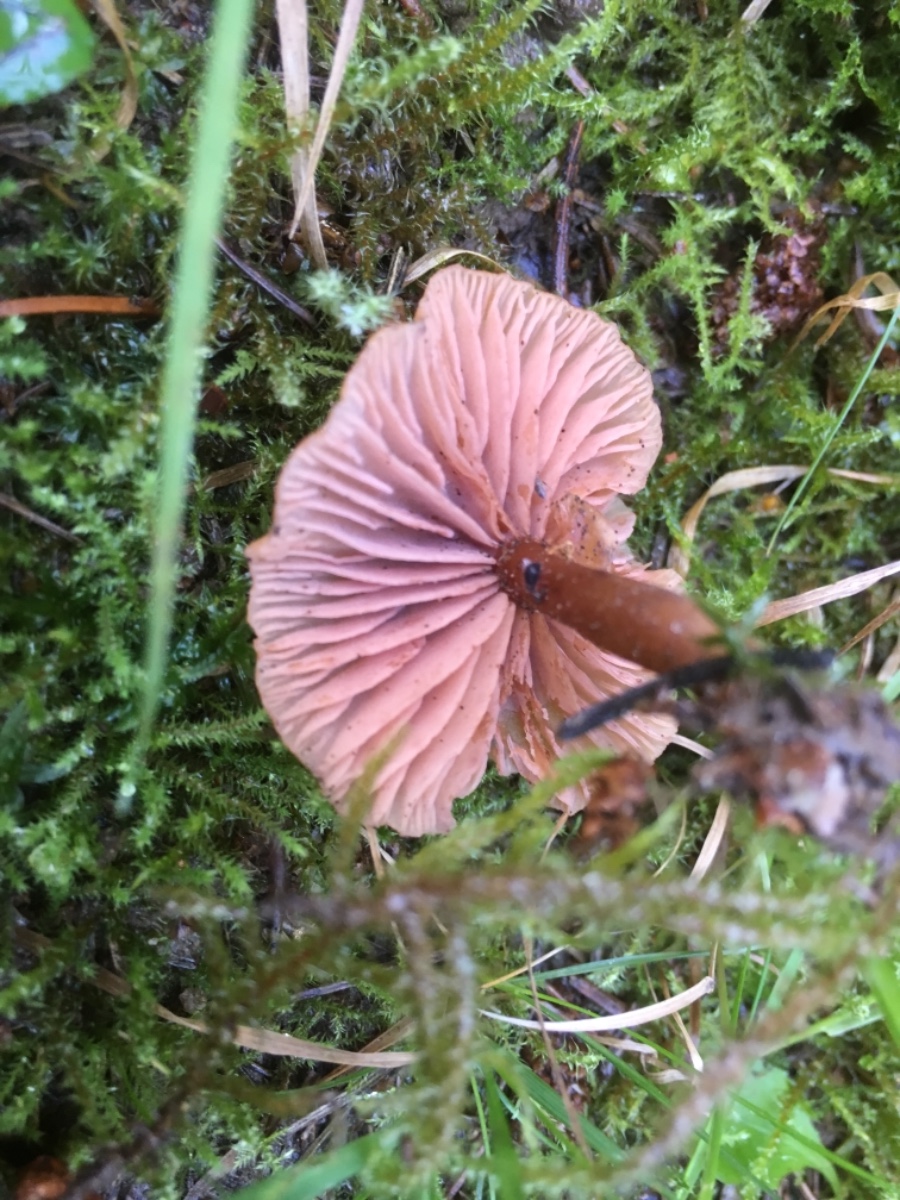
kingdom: Fungi
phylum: Basidiomycota
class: Agaricomycetes
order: Agaricales
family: Hydnangiaceae
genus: Laccaria
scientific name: Laccaria laccata
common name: rød ametysthat
